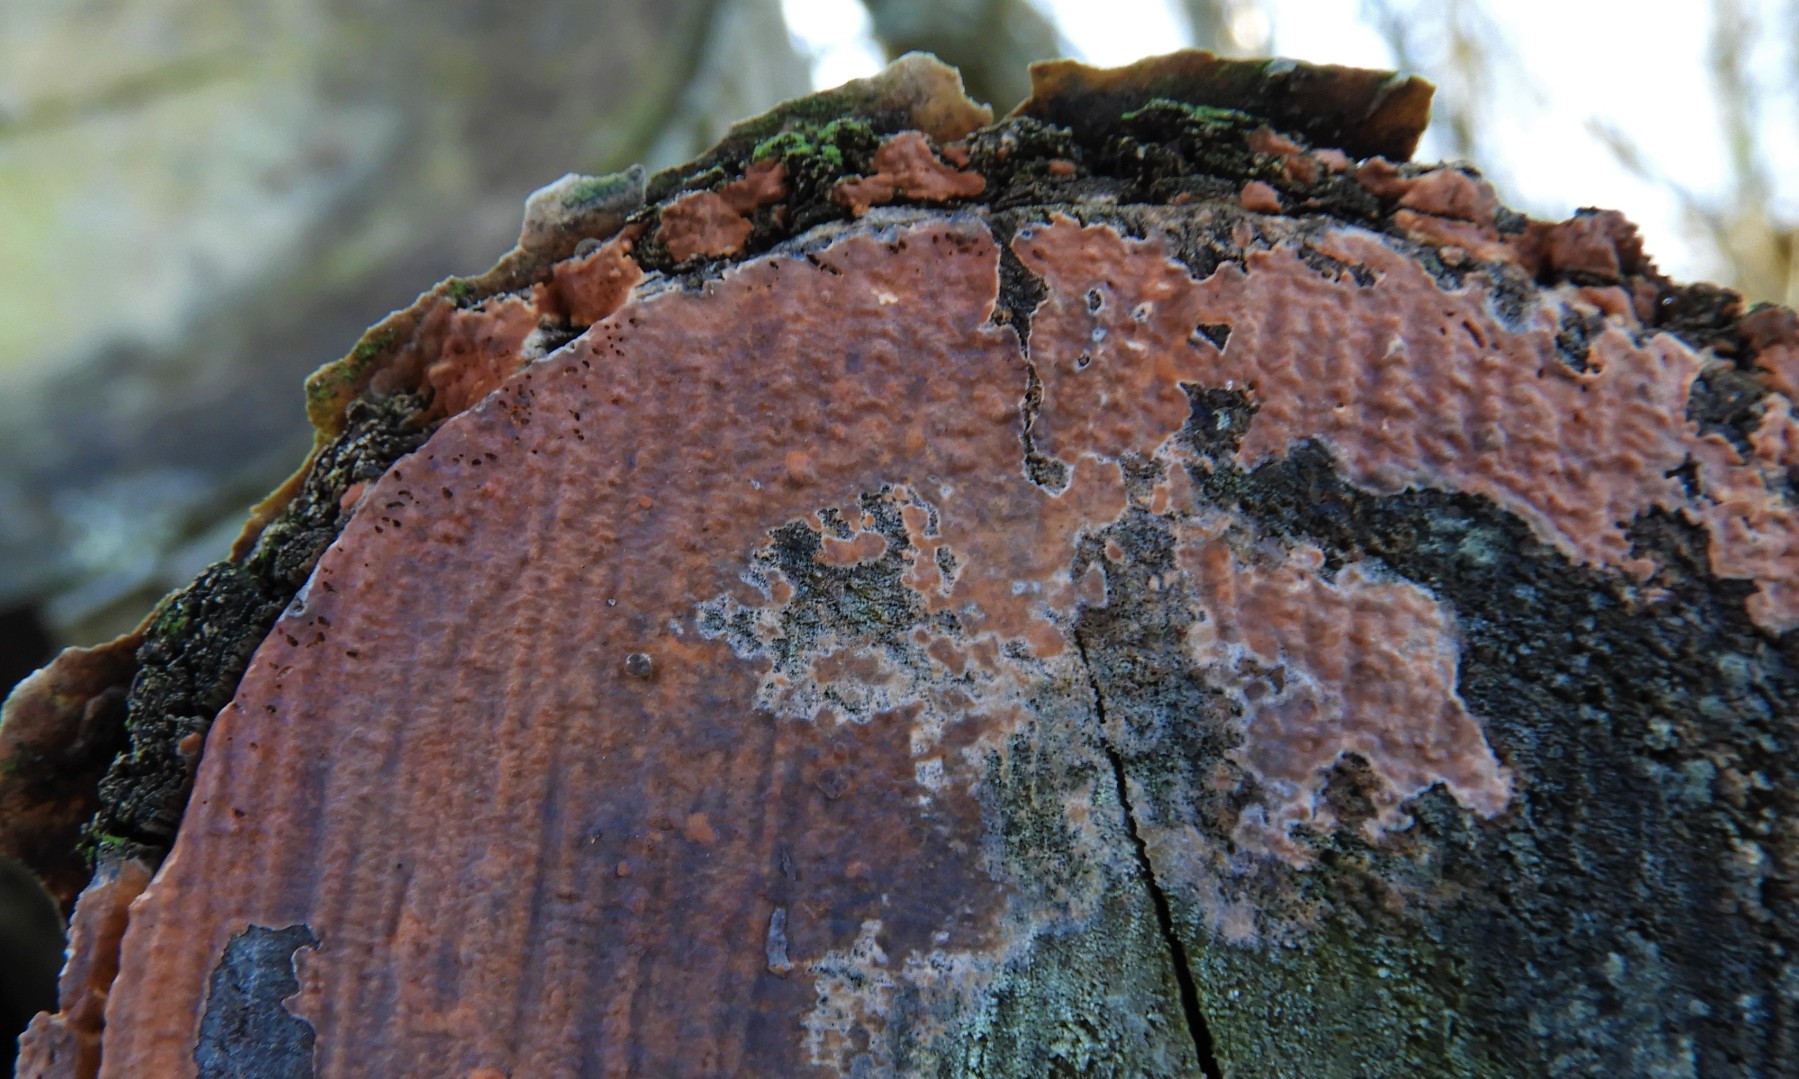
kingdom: Fungi
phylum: Basidiomycota
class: Agaricomycetes
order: Russulales
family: Peniophoraceae
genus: Peniophora
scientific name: Peniophora incarnata
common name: laksefarvet voksskind
